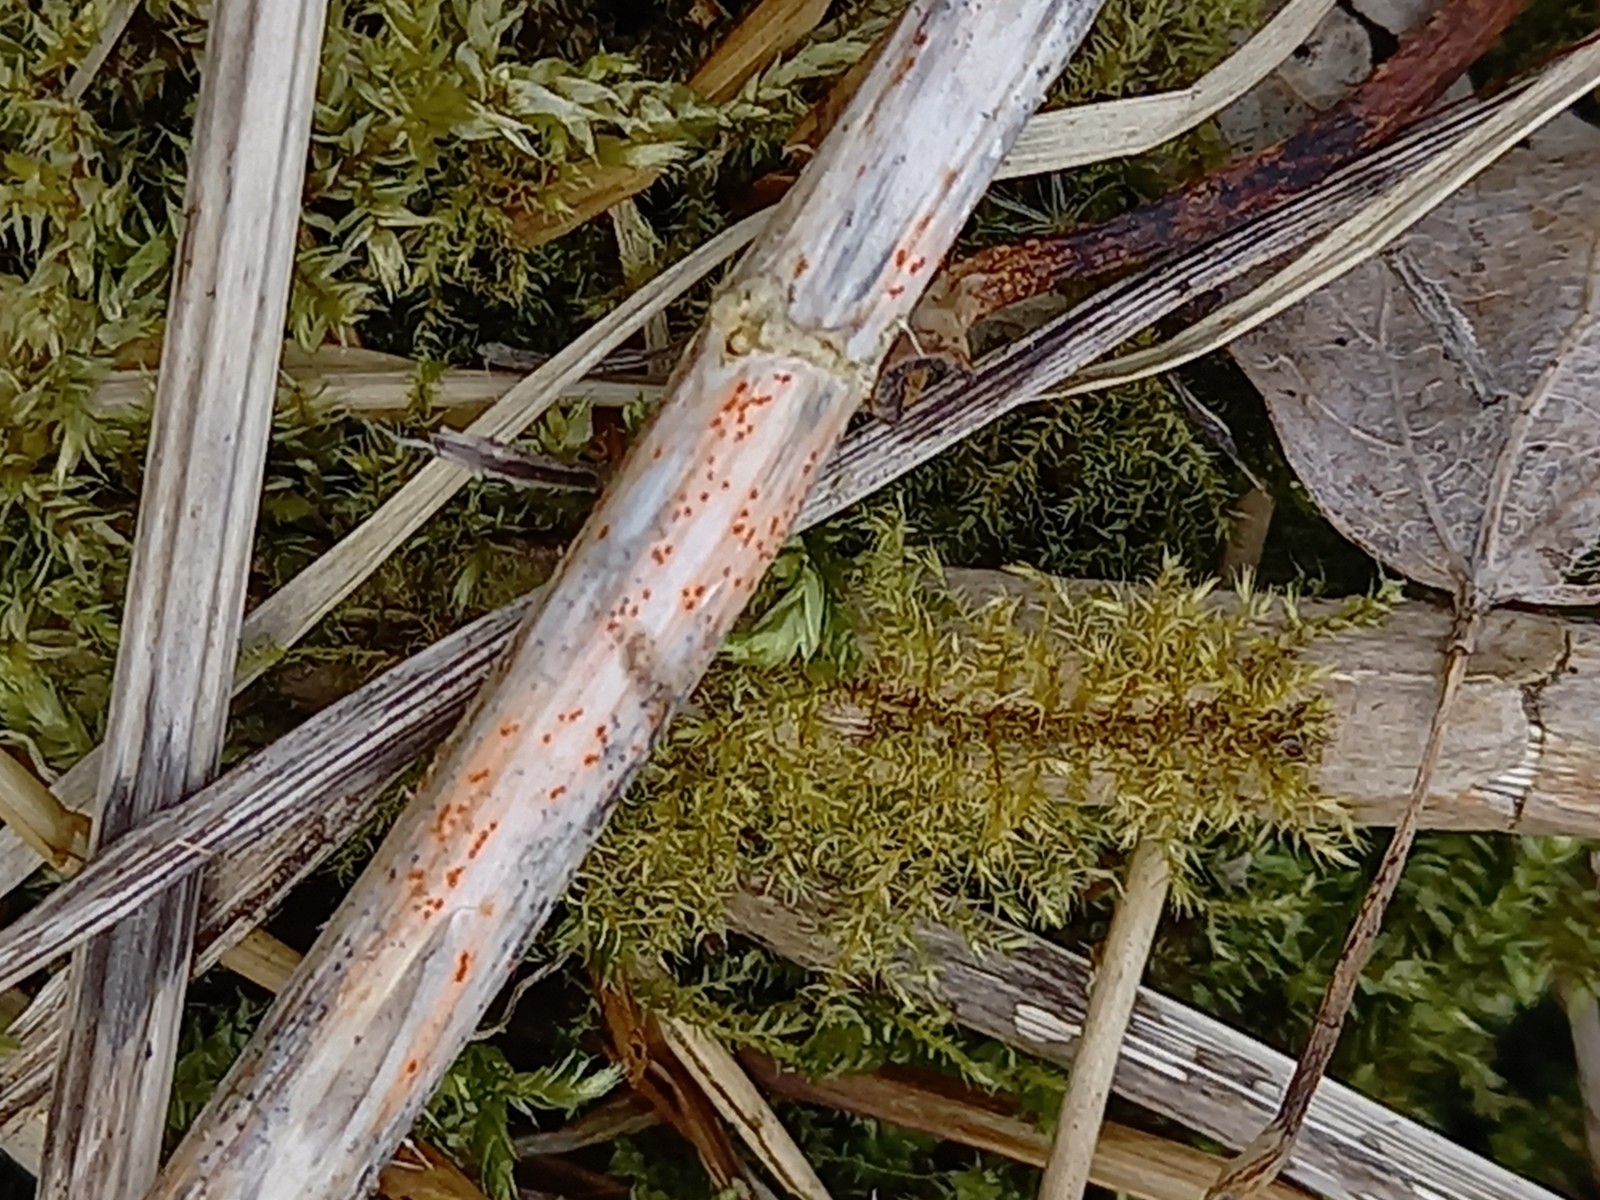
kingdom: Fungi
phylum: Ascomycota
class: Leotiomycetes
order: Helotiales
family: Calloriaceae
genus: Calloria
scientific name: Calloria urticae
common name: nælde-orangeskive
